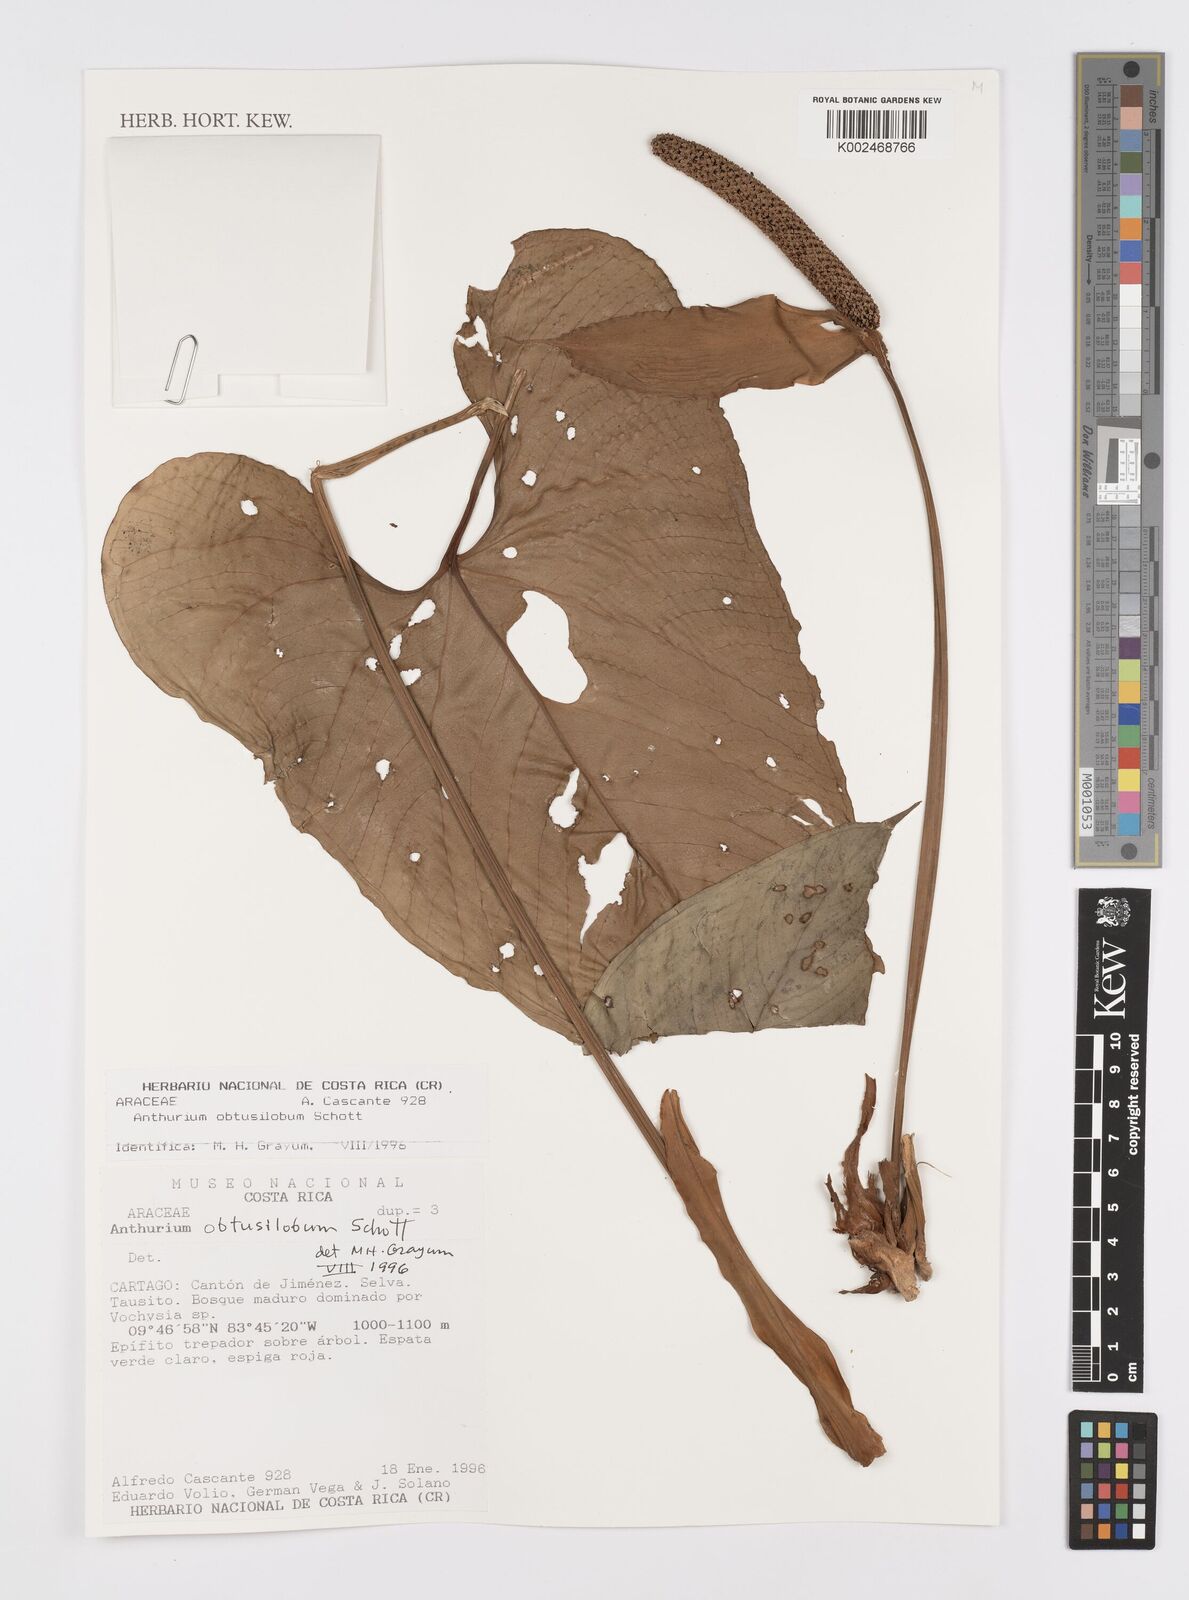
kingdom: Plantae
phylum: Tracheophyta
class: Liliopsida
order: Alismatales
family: Araceae
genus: Anthurium
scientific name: Anthurium obtusilobum
